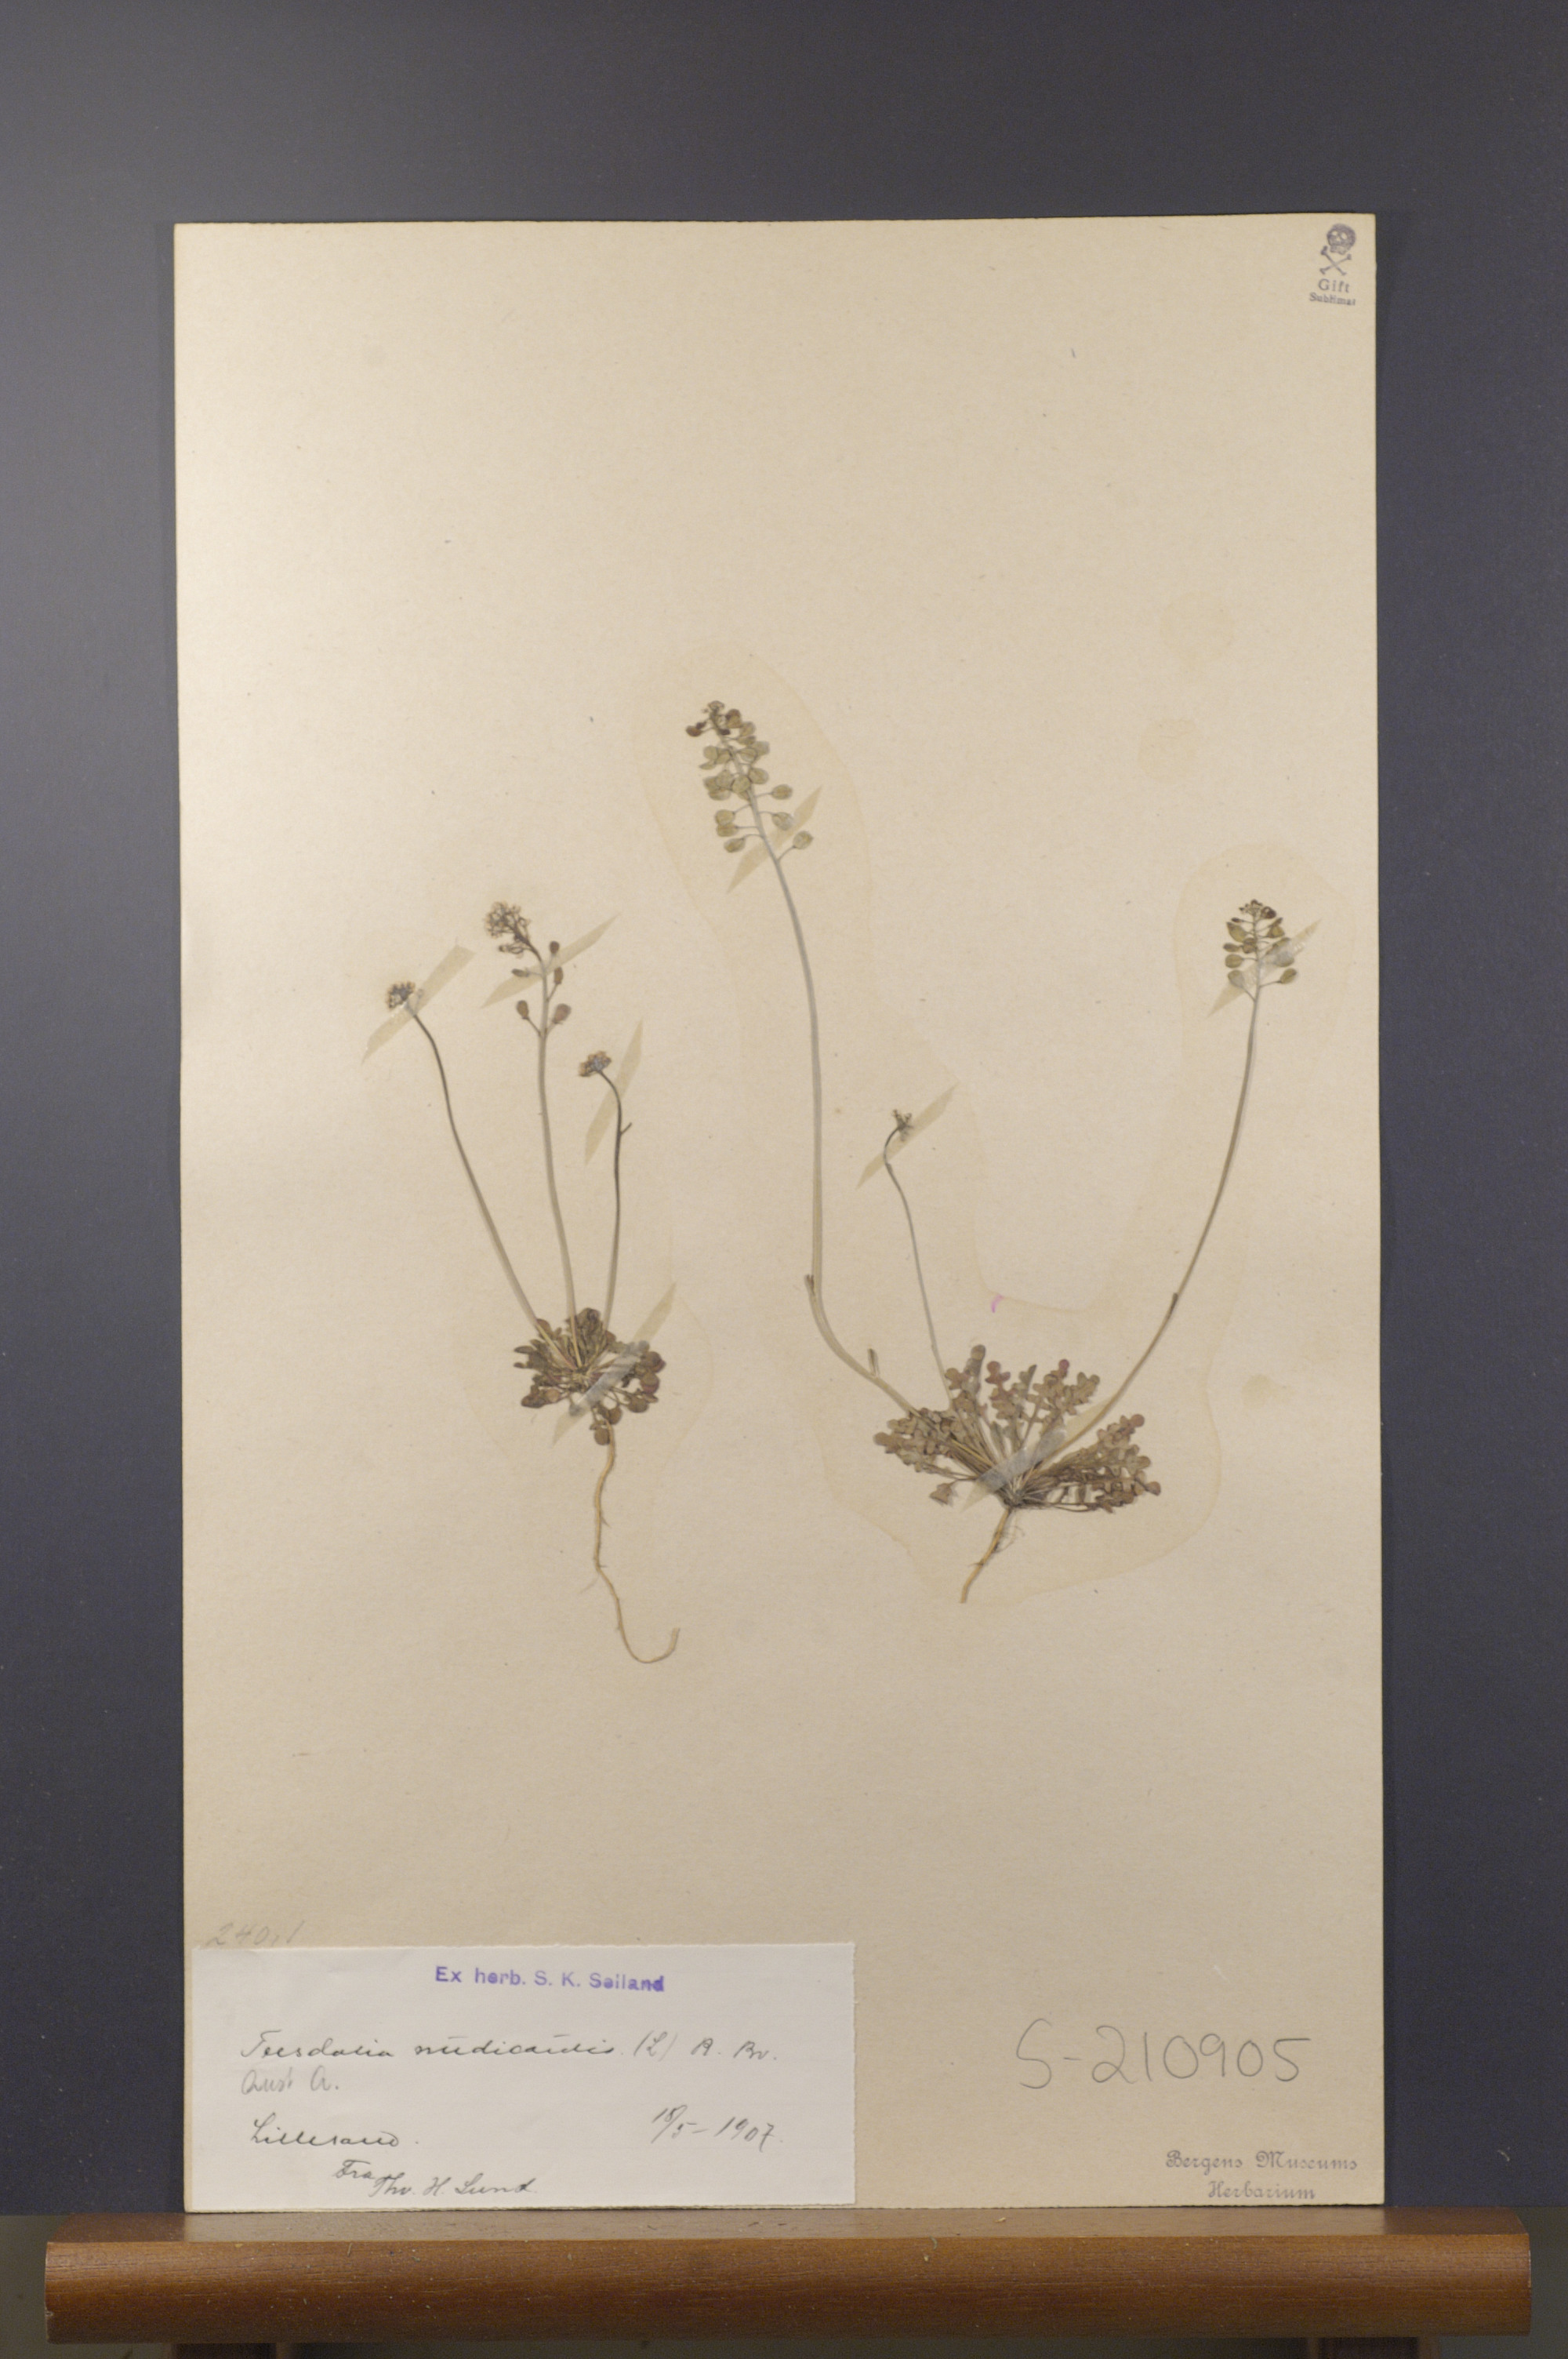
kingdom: Plantae
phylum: Tracheophyta
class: Magnoliopsida
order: Brassicales
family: Brassicaceae
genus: Teesdalia
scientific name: Teesdalia nudicaulis
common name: Shepherd's cress
